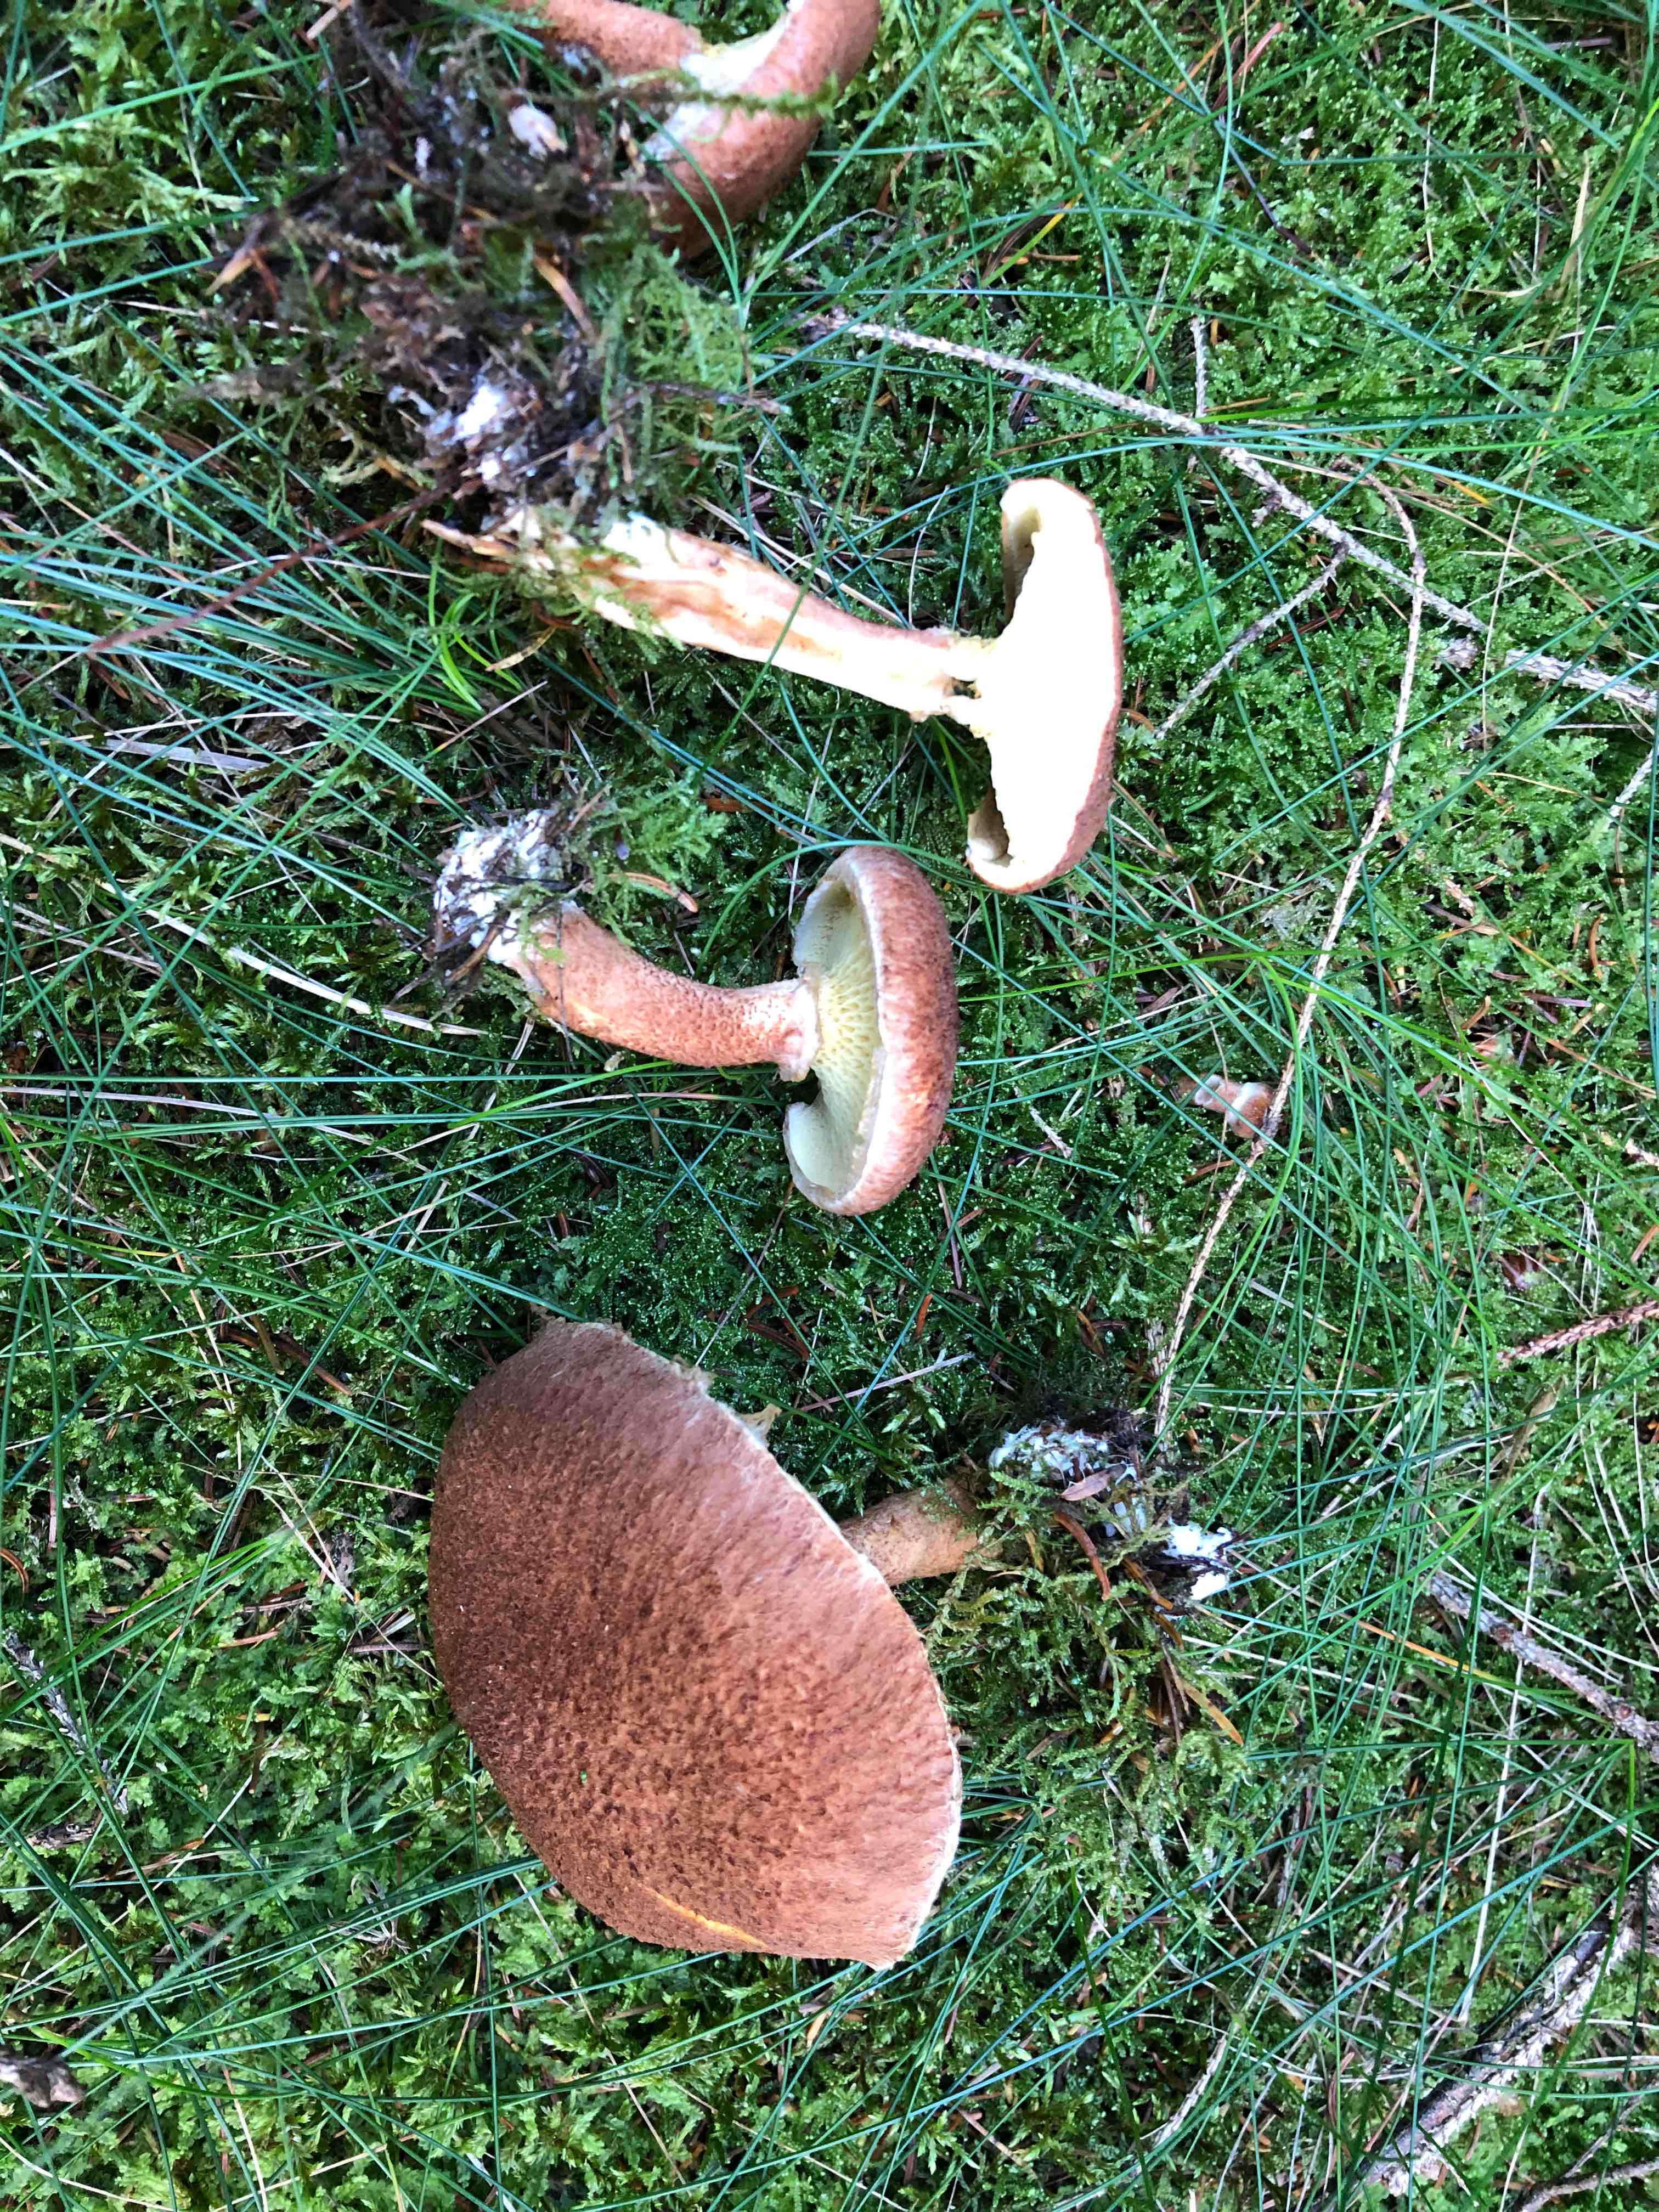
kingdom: Fungi
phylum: Basidiomycota
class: Agaricomycetes
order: Boletales
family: Suillaceae
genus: Suillus
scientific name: Suillus cavipes
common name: hulstokket slimrørhat
